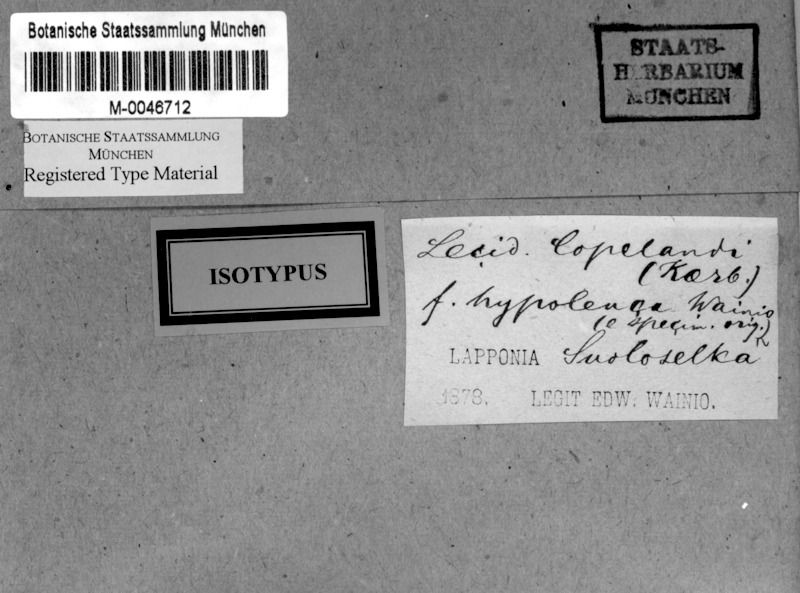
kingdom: Fungi
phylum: Ascomycota
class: Lecanoromycetes
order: Rhizocarpales
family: Rhizocarpaceae
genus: Rhizocarpon
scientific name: Rhizocarpon copelandii
